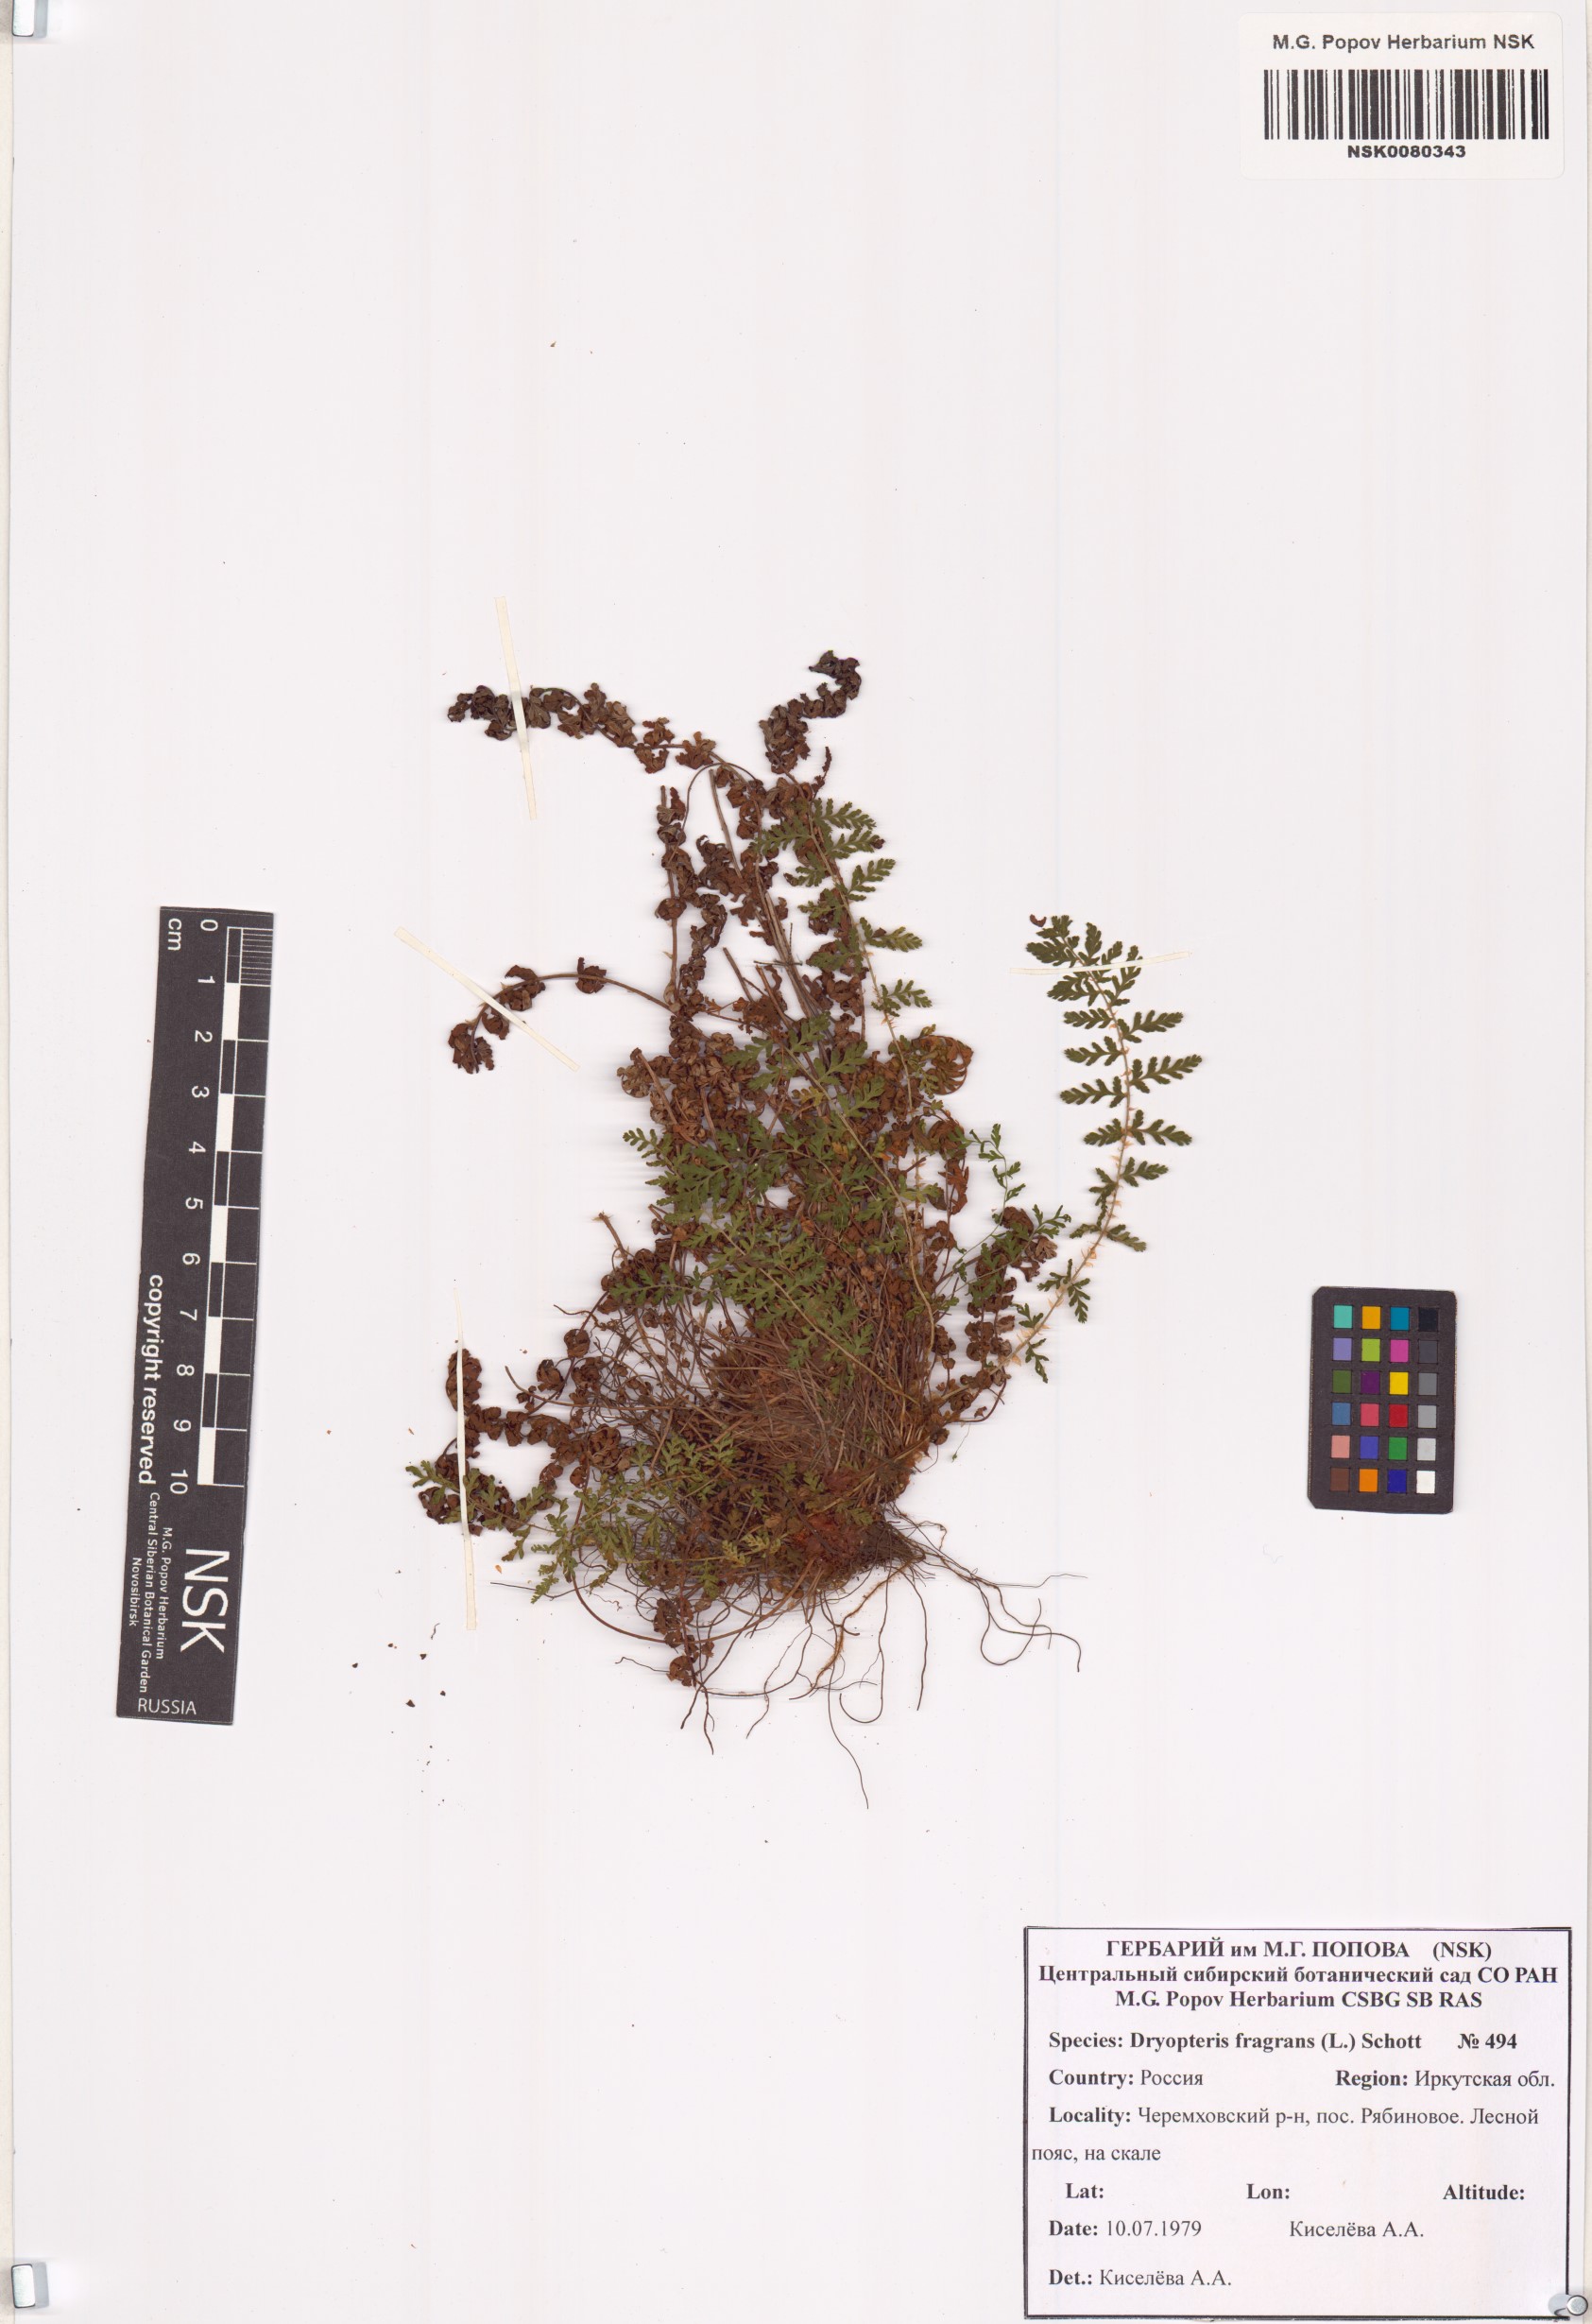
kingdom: Plantae
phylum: Tracheophyta
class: Polypodiopsida
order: Polypodiales
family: Dryopteridaceae
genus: Dryopteris
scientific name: Dryopteris fragrans
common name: Fragrant wood fern
